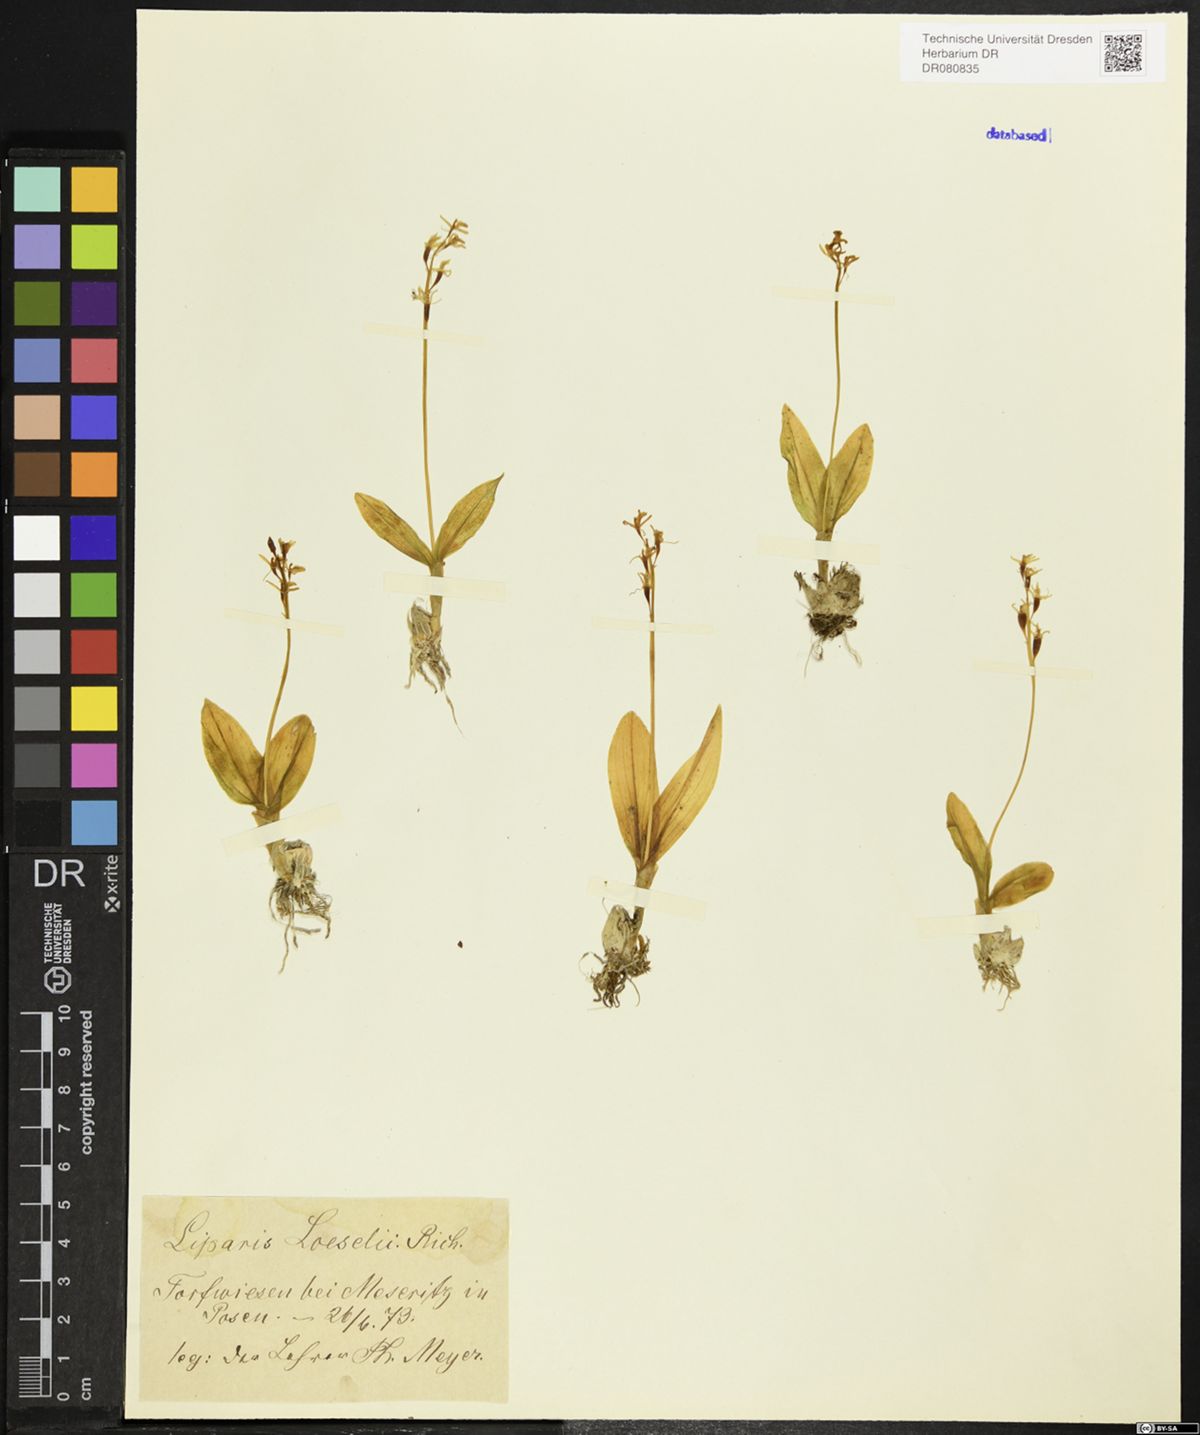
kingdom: Animalia
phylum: Arthropoda
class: Insecta
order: Coleoptera
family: Curculionidae
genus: Liparis
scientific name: Liparis loeselii
